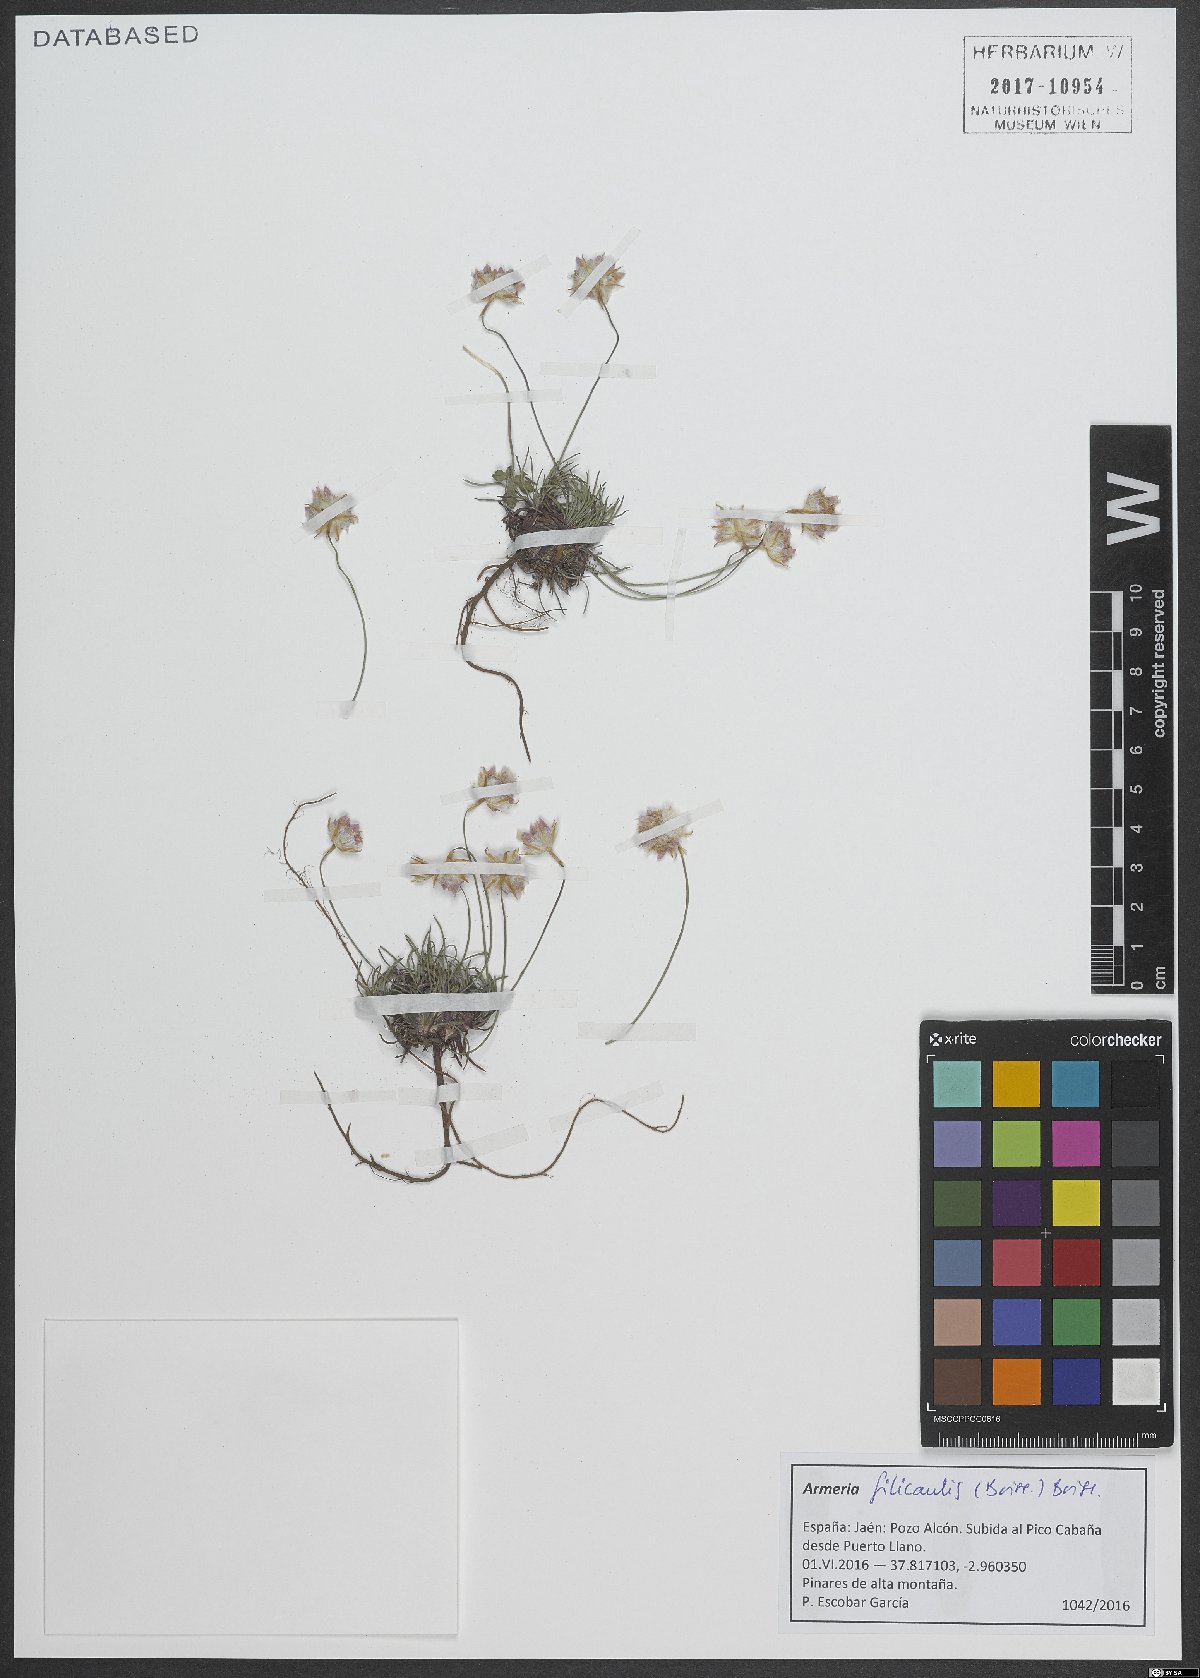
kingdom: Plantae
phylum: Tracheophyta
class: Magnoliopsida
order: Caryophyllales
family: Plumbaginaceae
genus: Armeria
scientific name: Armeria filicaulis
